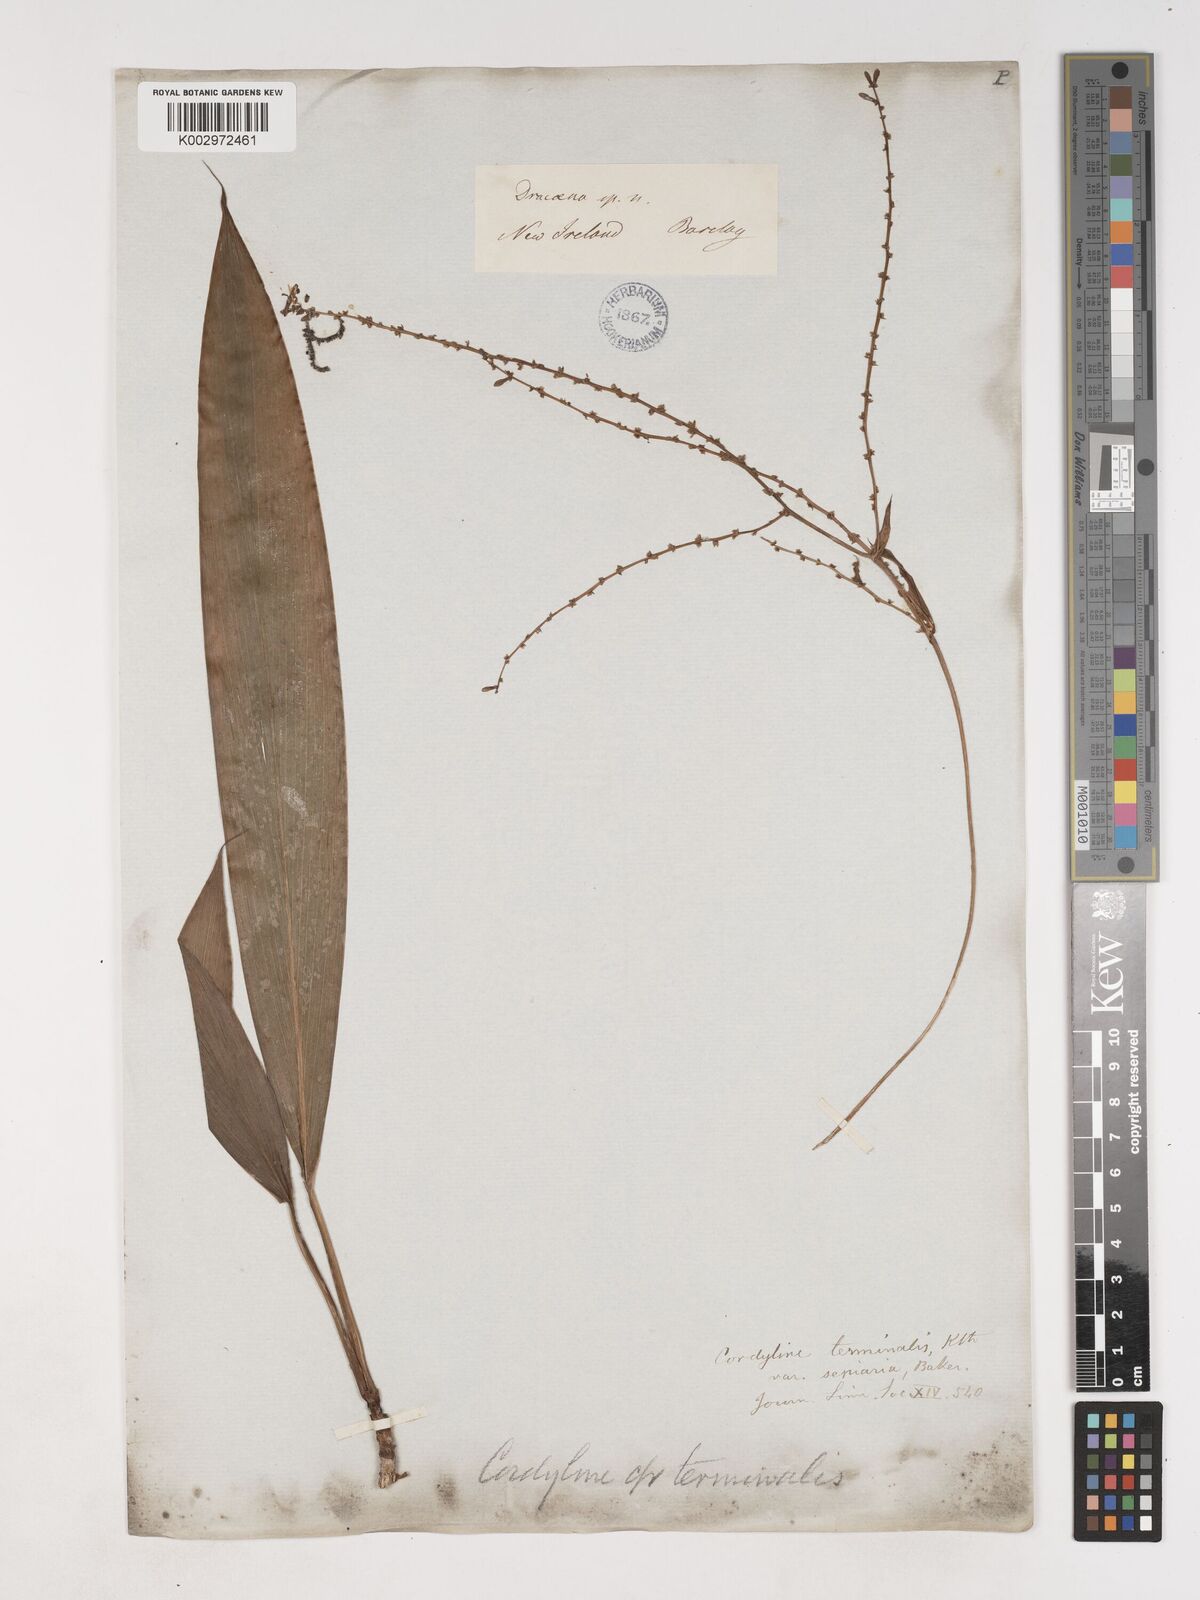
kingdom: Plantae
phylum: Tracheophyta
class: Liliopsida
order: Asparagales
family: Asparagaceae
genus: Cordyline
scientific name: Cordyline fruticosa
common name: Good-luck-plant
